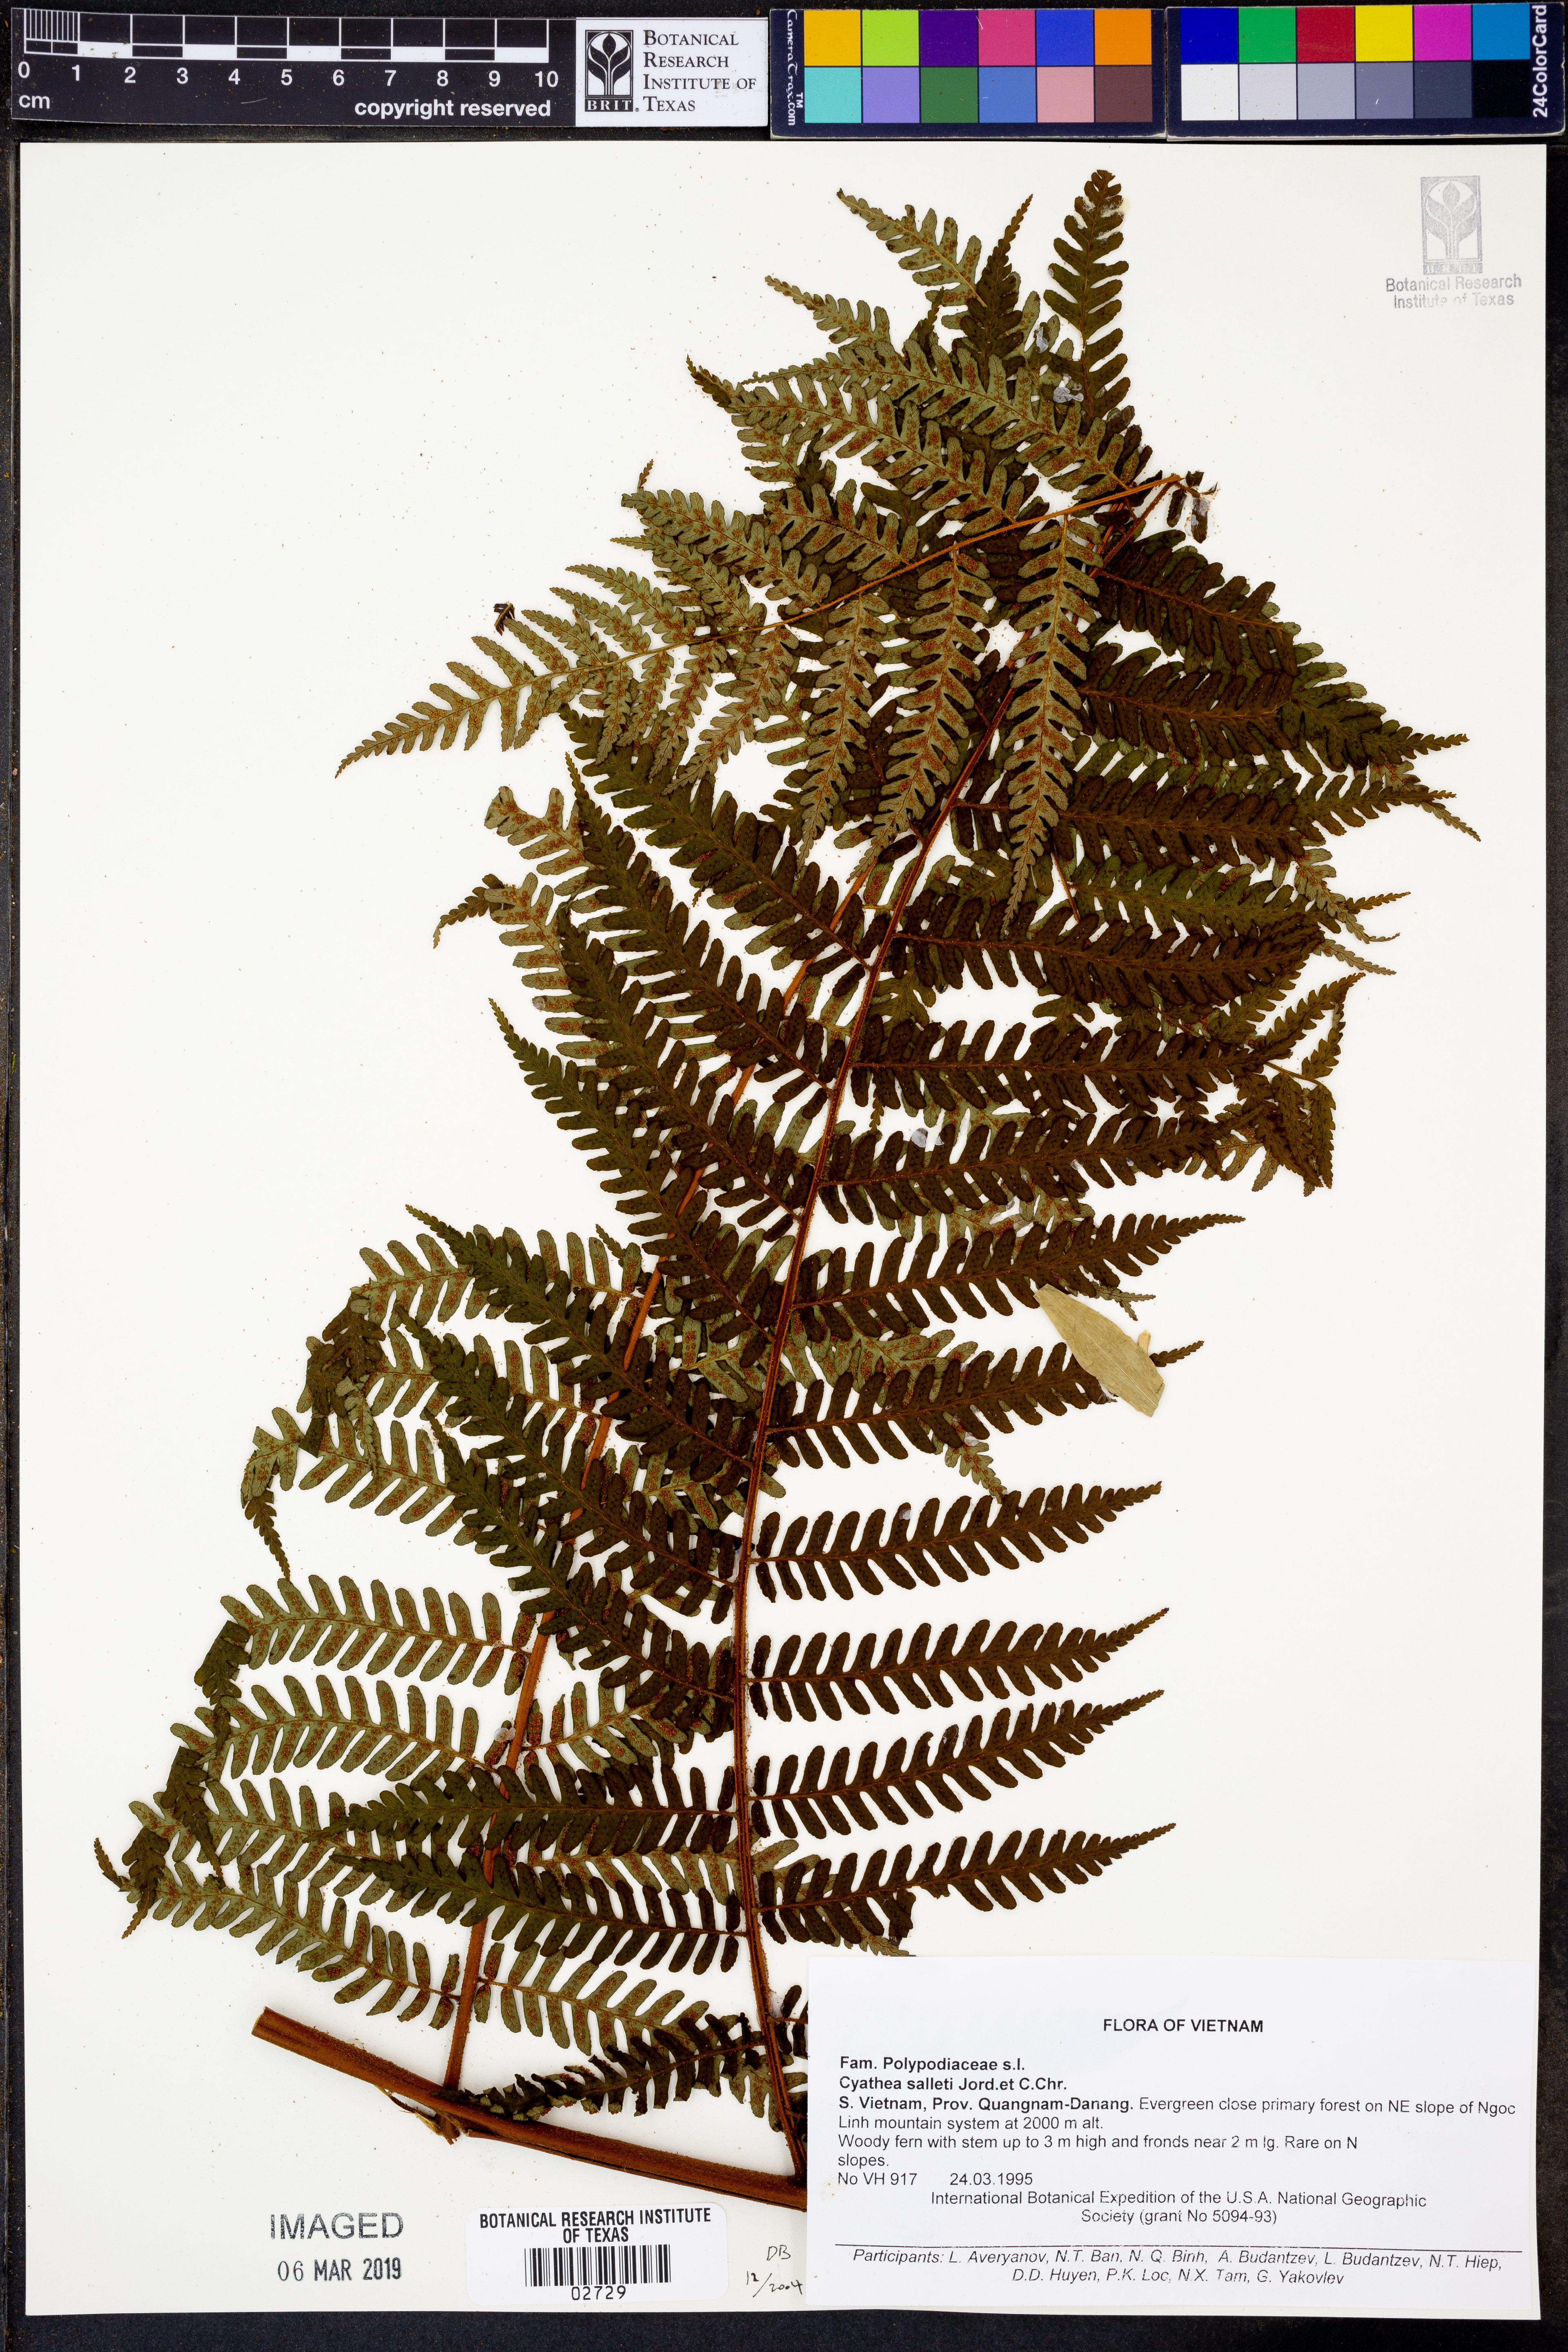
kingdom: Plantae
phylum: Tracheophyta
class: Polypodiopsida
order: Cyatheales
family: Cyatheaceae
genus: Gymnosphaera
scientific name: Gymnosphaera salletii
